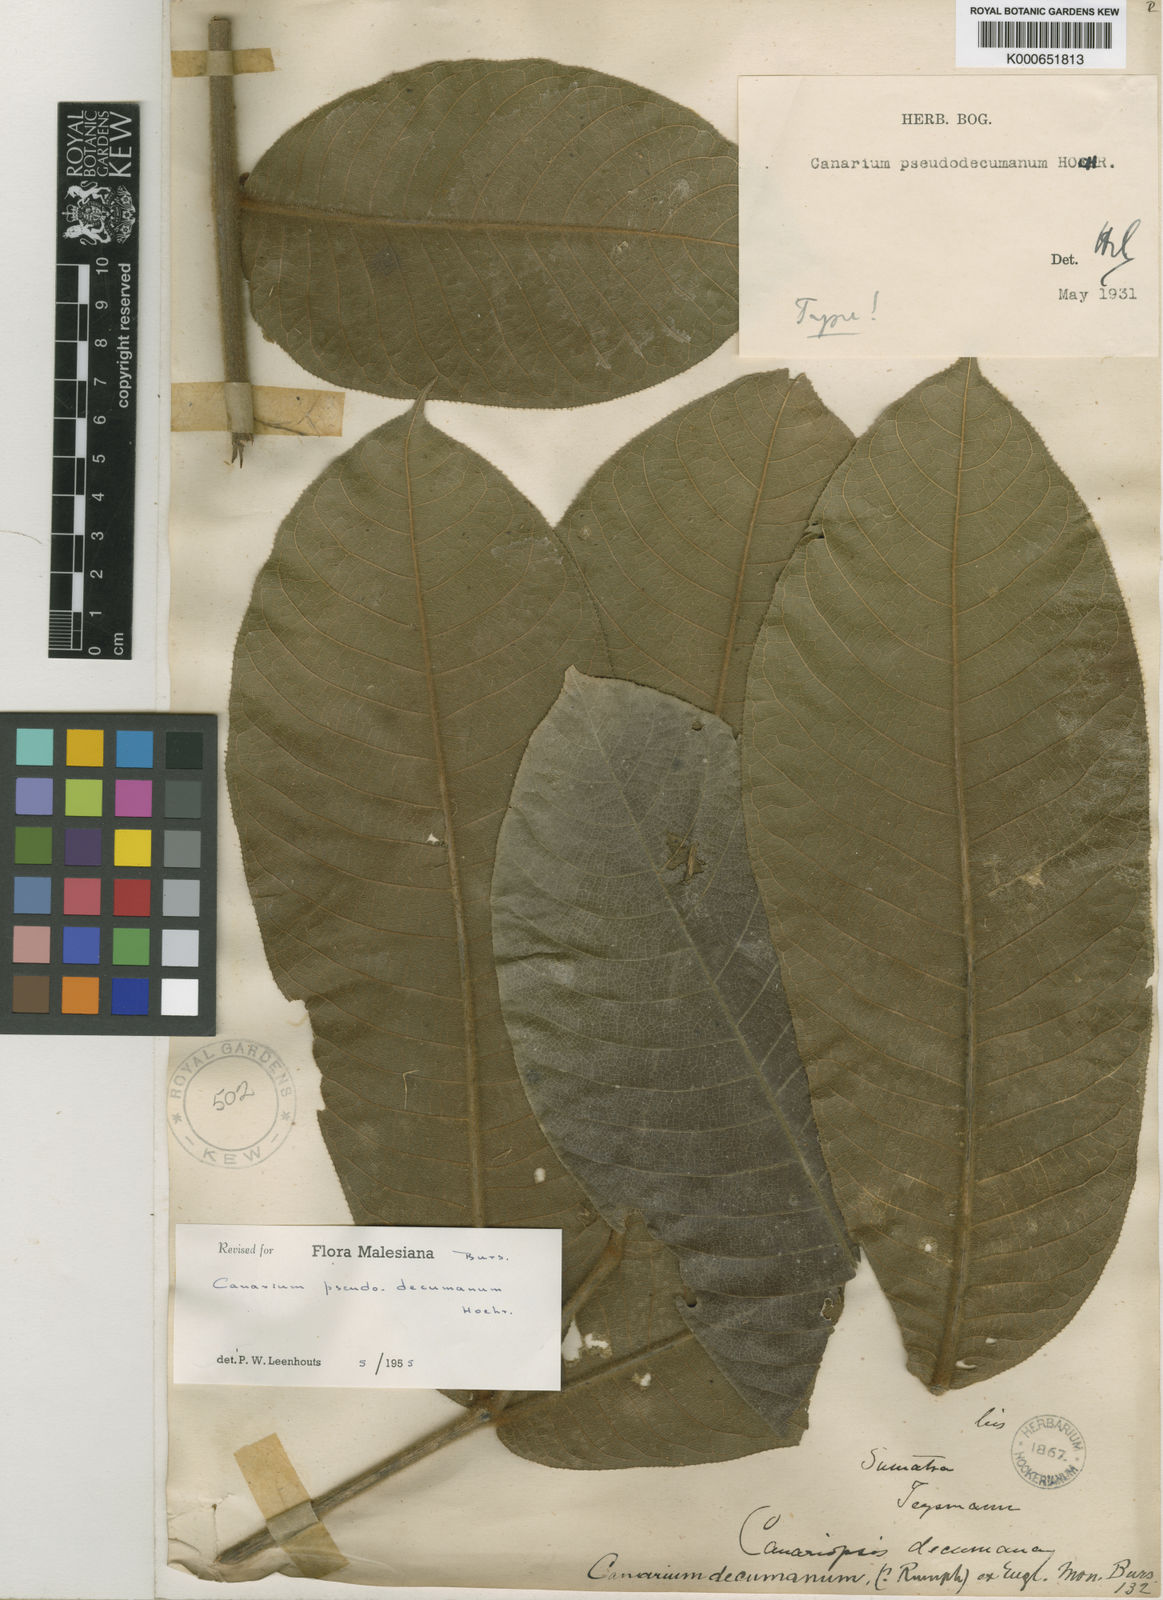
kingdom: Plantae
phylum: Tracheophyta
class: Magnoliopsida
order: Sapindales
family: Burseraceae
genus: Canarium
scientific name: Canarium pseudodecumanum
